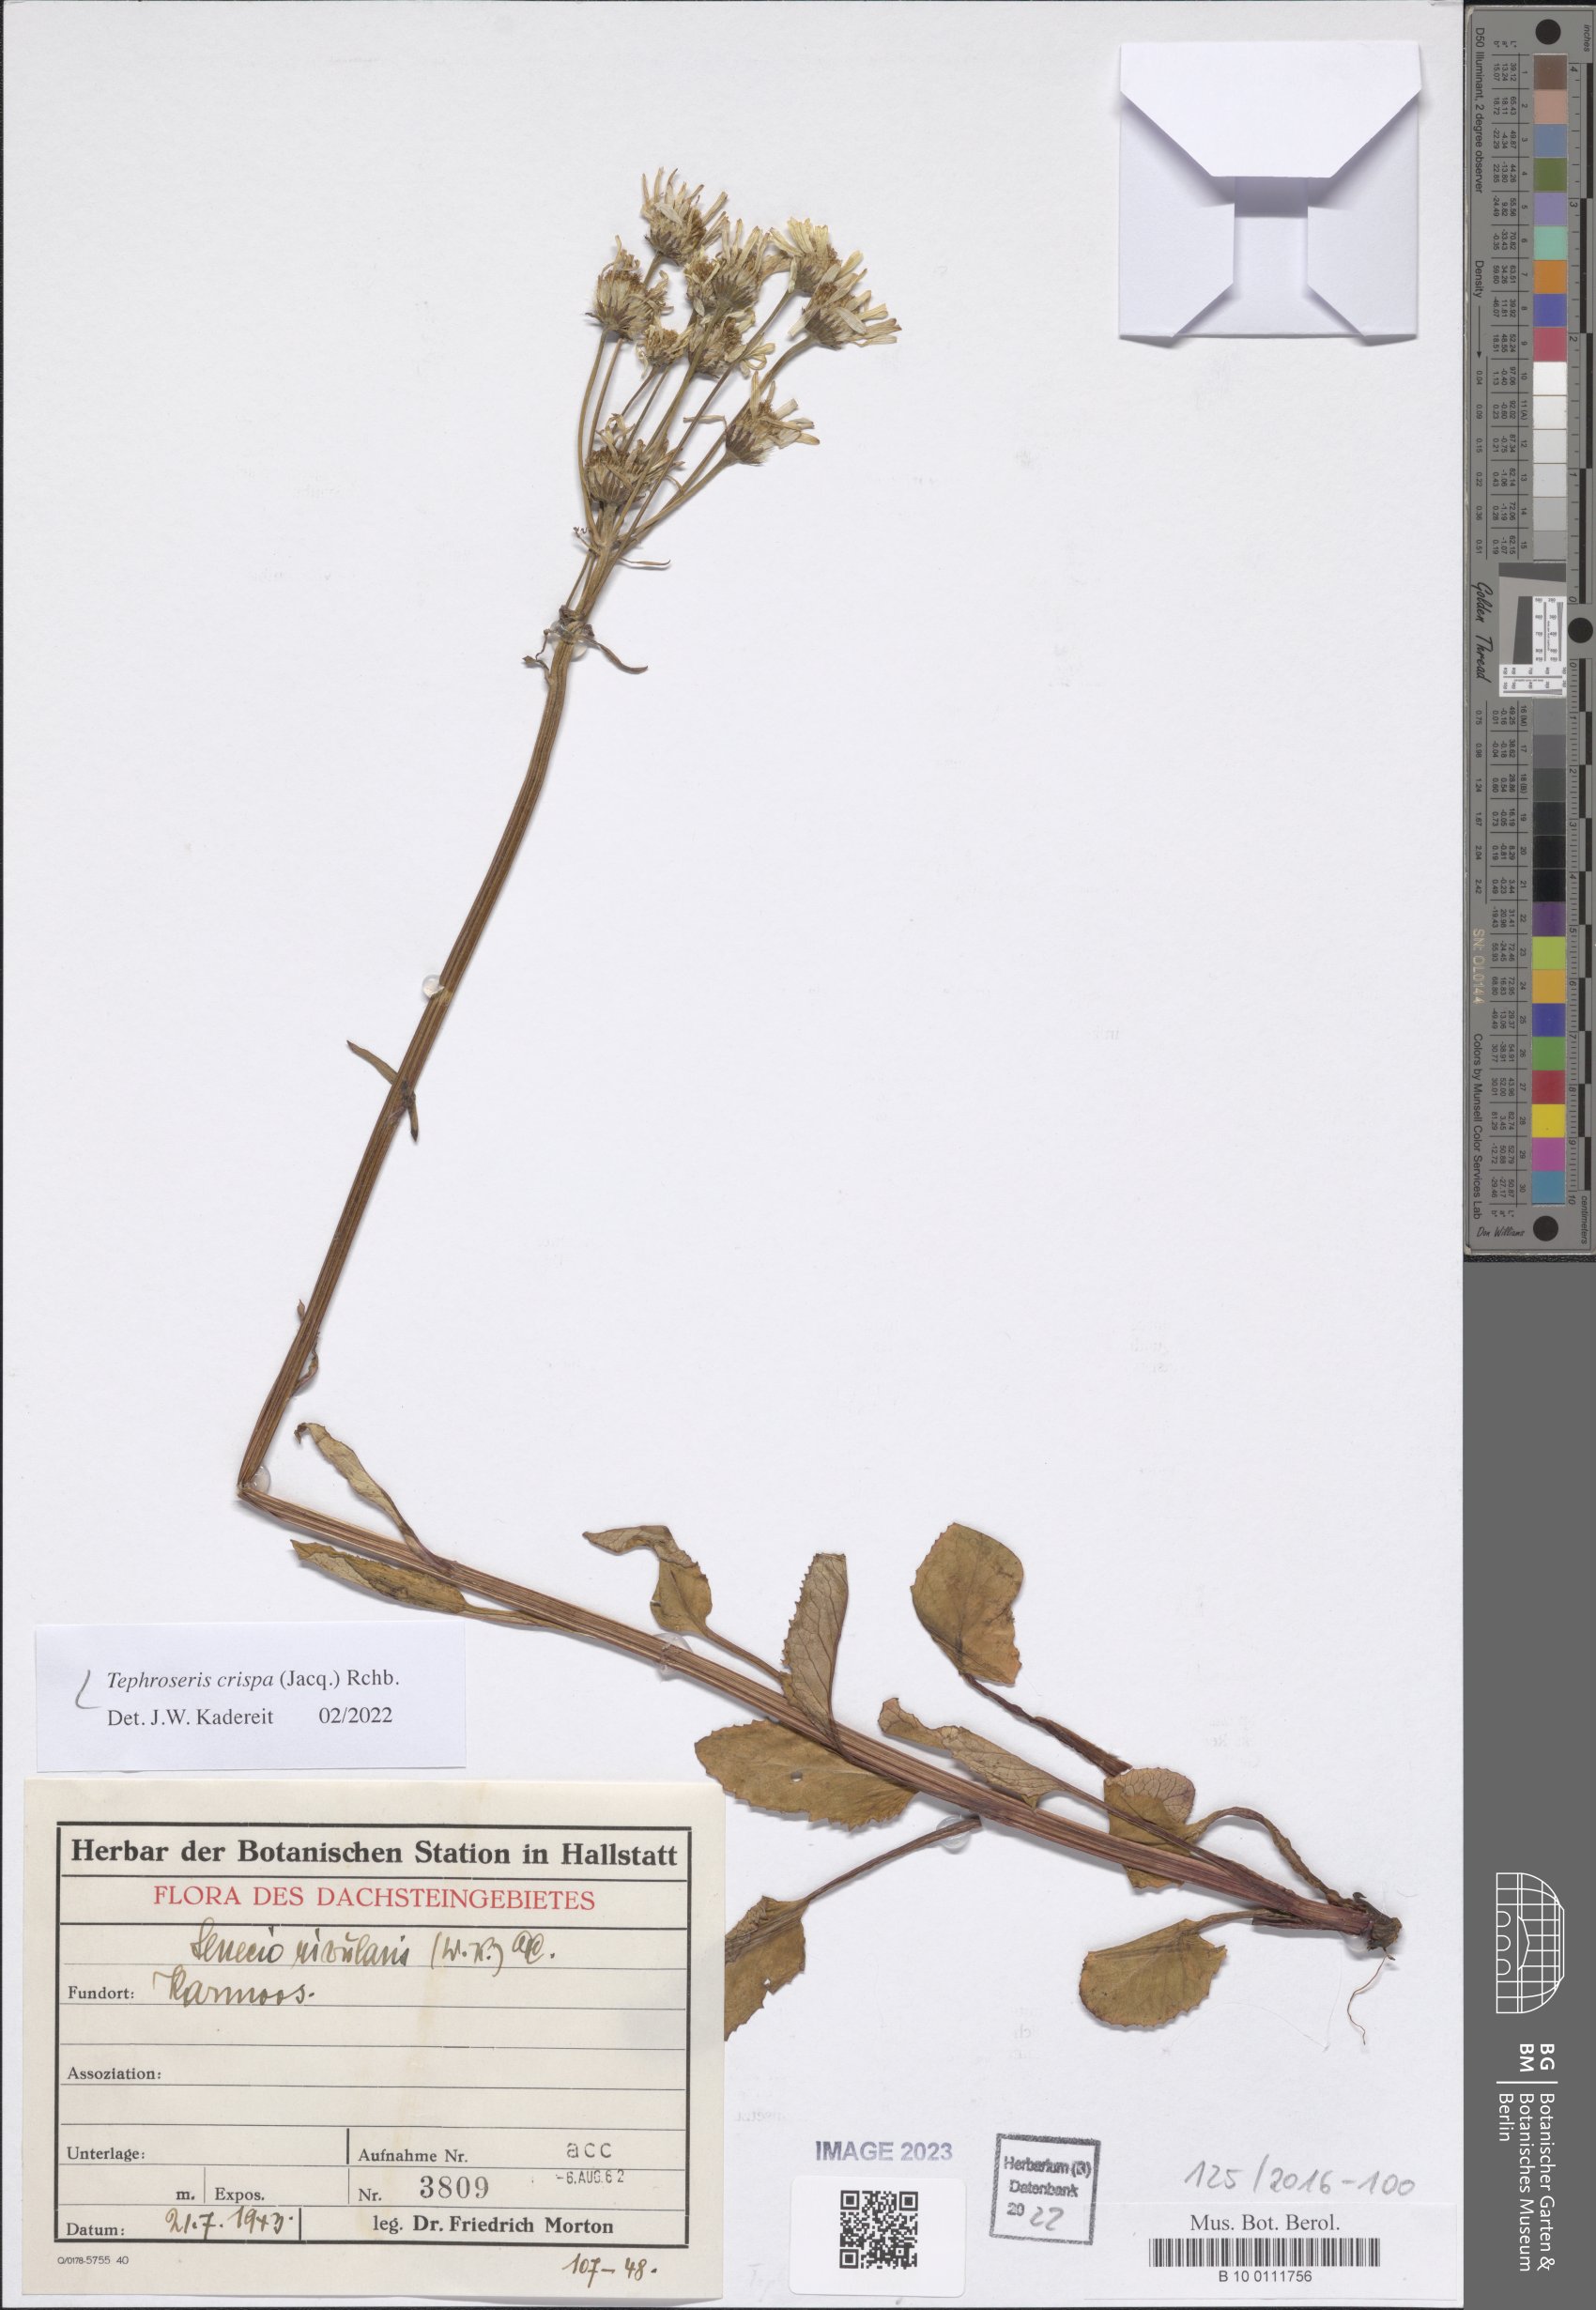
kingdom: Plantae
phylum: Tracheophyta
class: Magnoliopsida
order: Asterales
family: Asteraceae
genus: Tephroseris
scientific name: Tephroseris crispa
